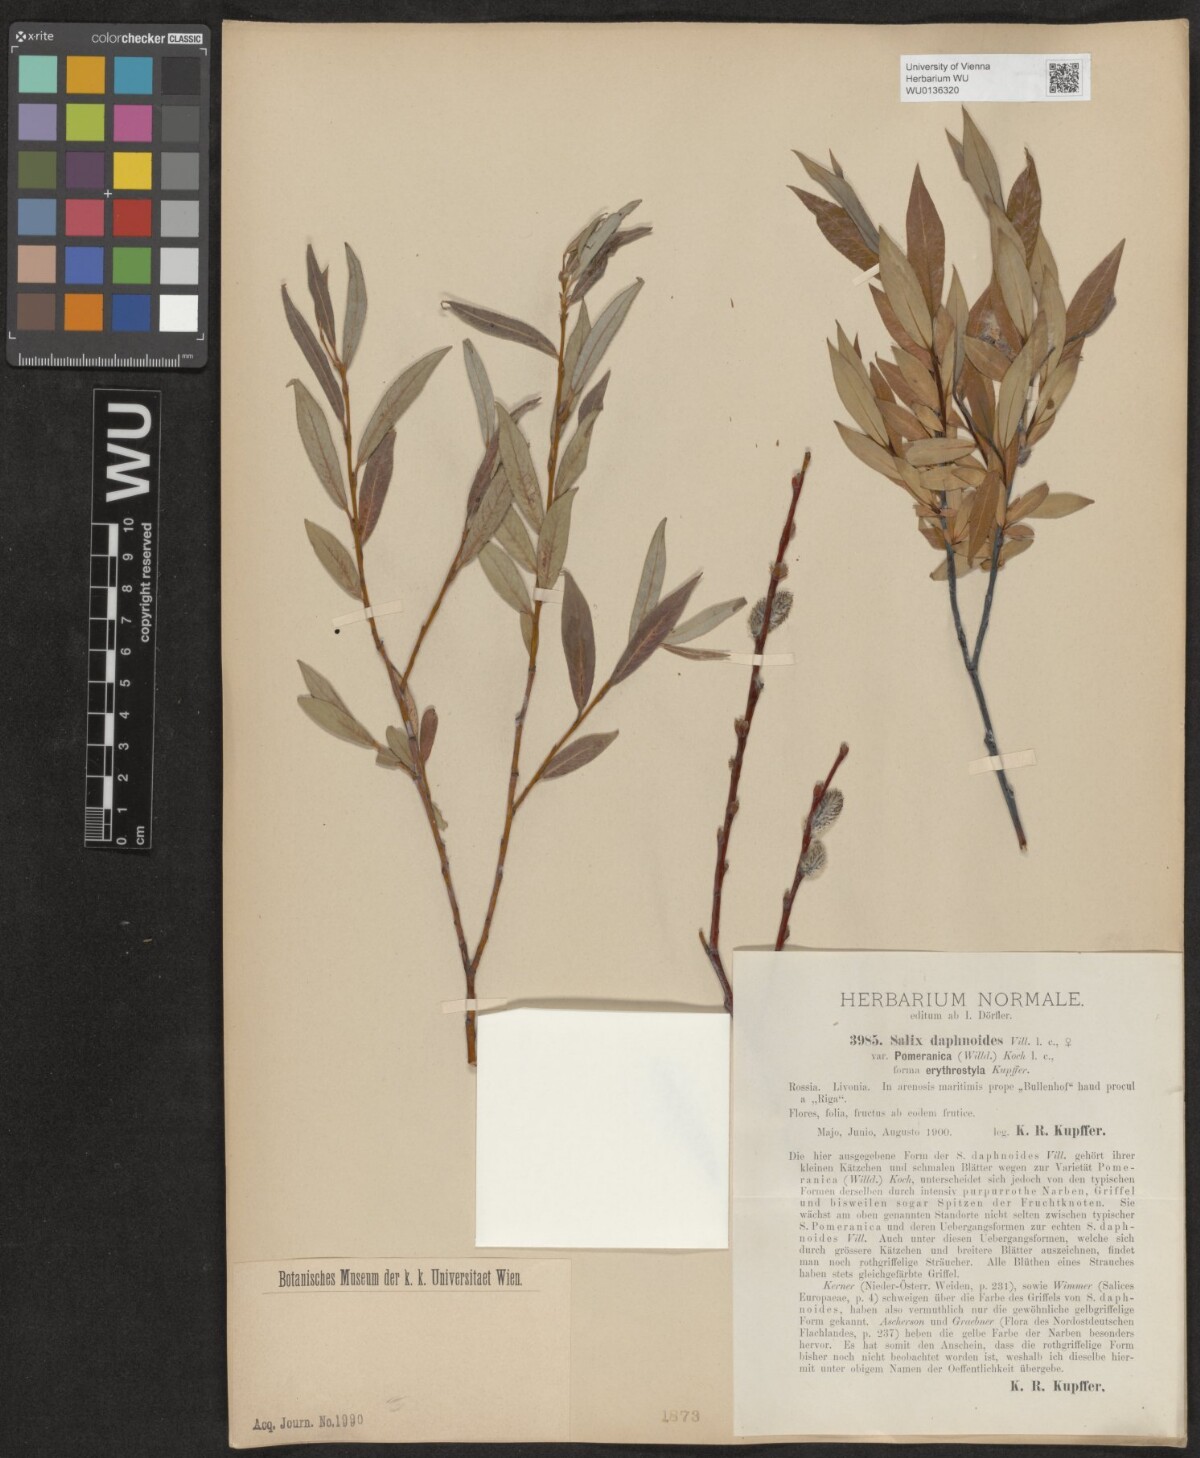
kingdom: Plantae
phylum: Tracheophyta
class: Magnoliopsida
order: Malpighiales
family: Salicaceae
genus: Salix
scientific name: Salix daphnoides
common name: European violet-willow
